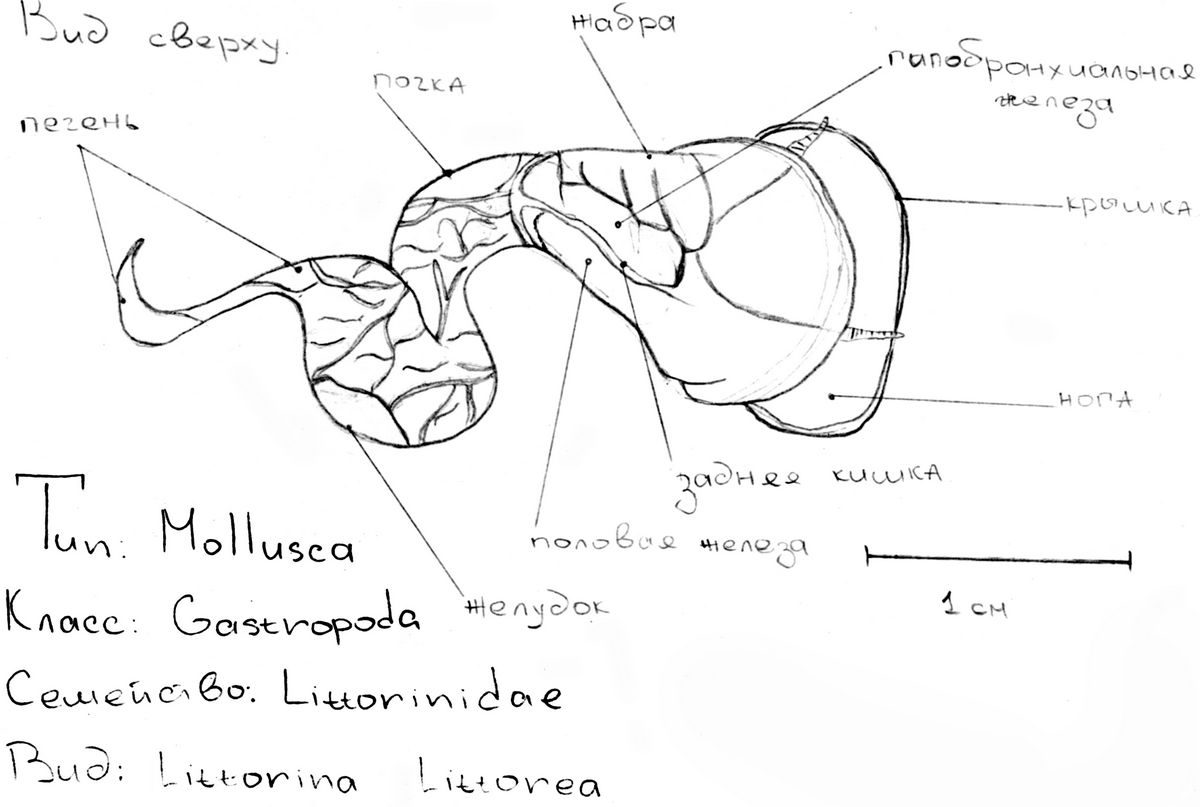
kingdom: Animalia
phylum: Mollusca
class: Gastropoda
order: Littorinimorpha
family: Littorinidae
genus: Littorina
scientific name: Littorina
